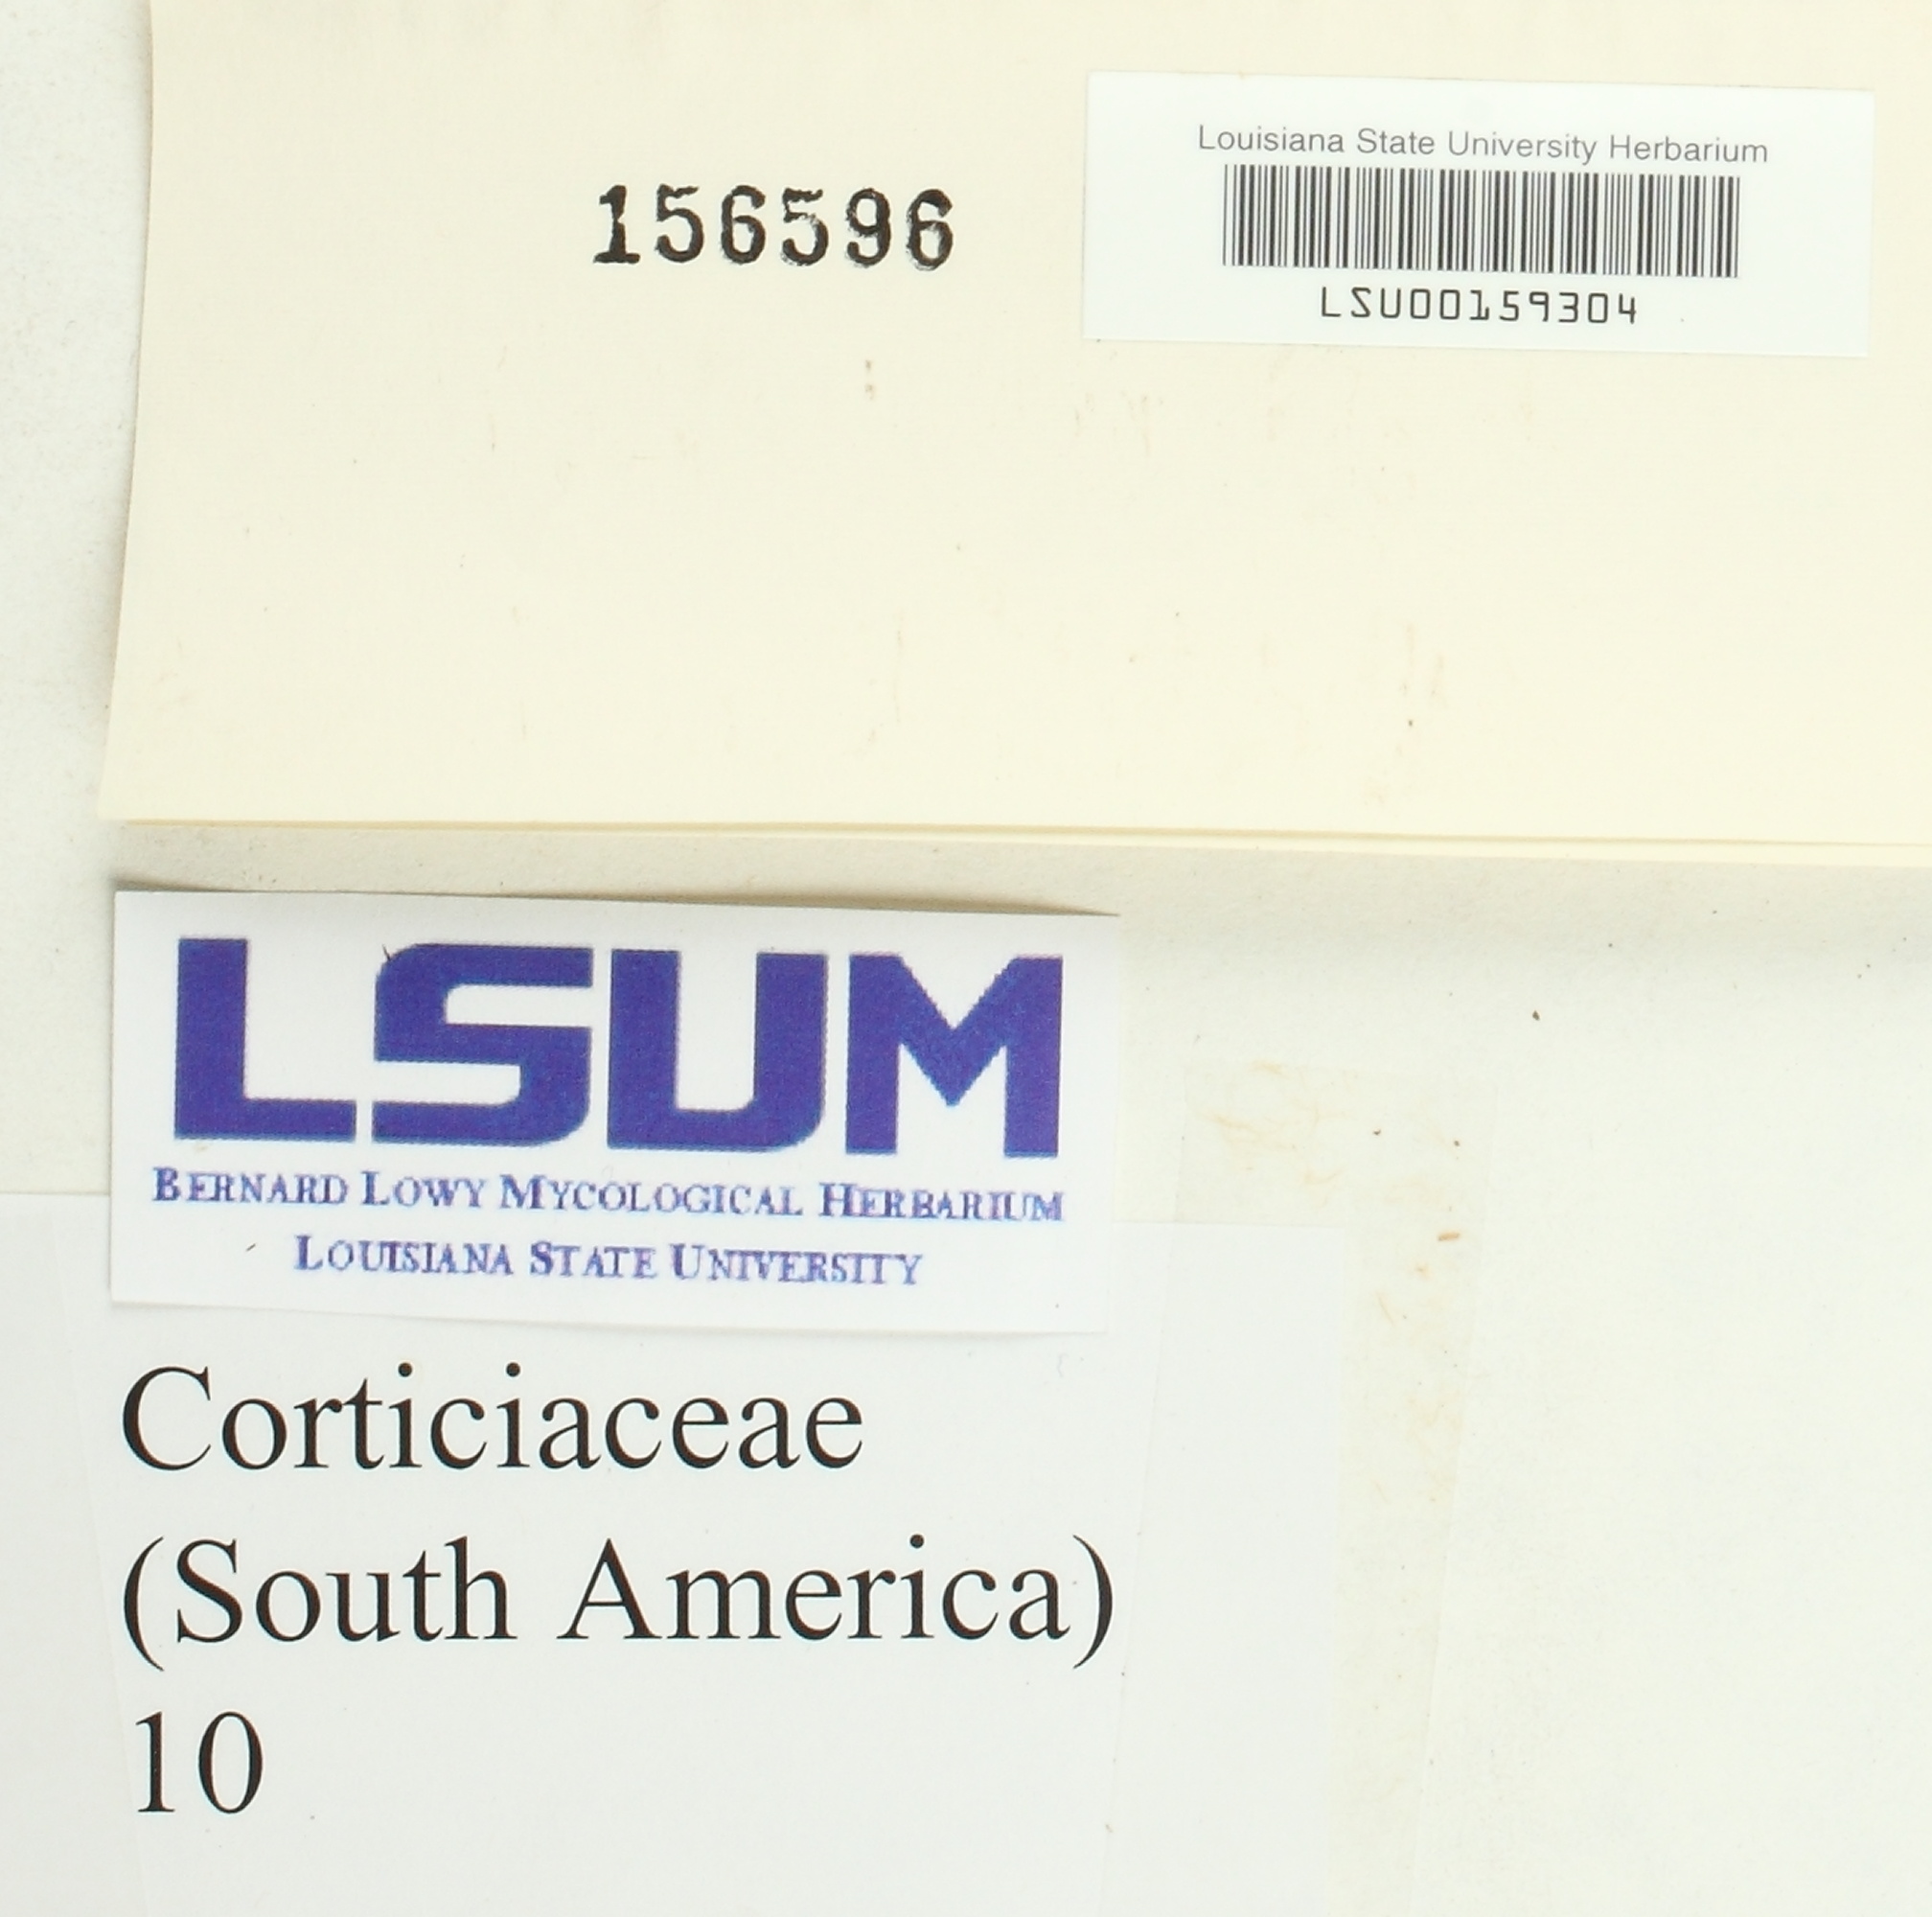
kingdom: Fungi
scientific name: Fungi
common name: Fungi
